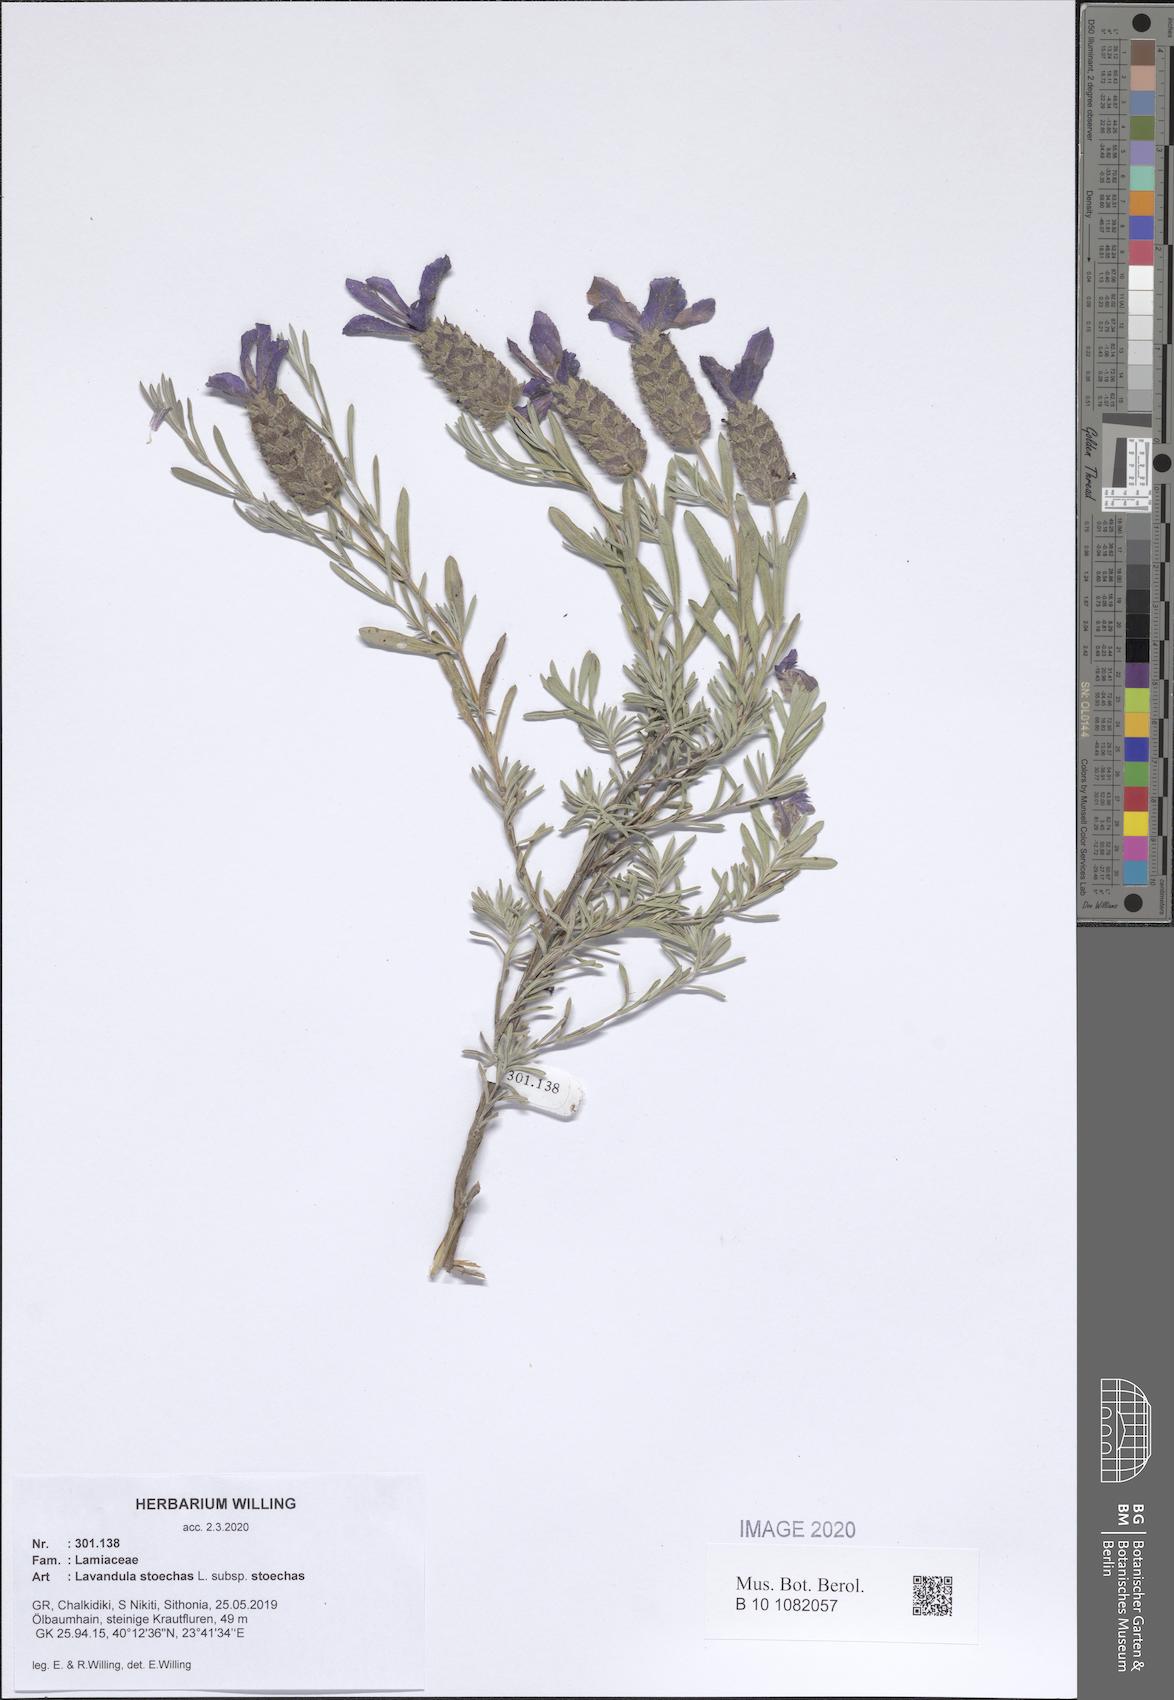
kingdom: Plantae
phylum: Tracheophyta
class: Magnoliopsida
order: Lamiales
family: Lamiaceae
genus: Lavandula
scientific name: Lavandula stoechas
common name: French lavender
